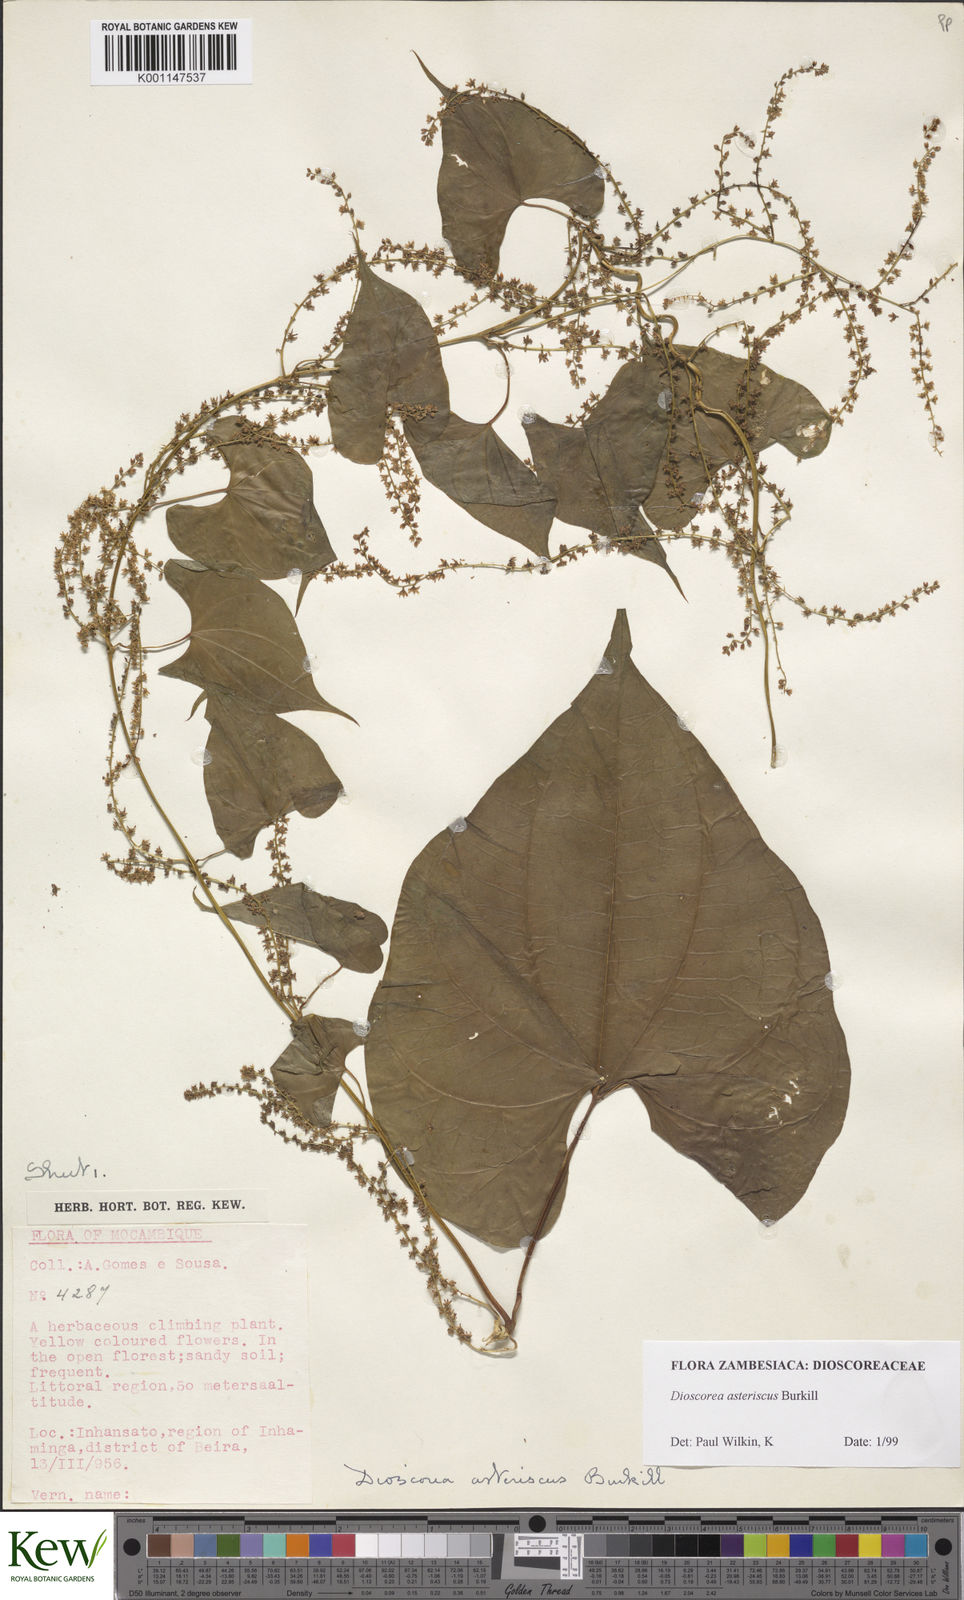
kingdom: Plantae
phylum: Tracheophyta
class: Liliopsida
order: Dioscoreales
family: Dioscoreaceae
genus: Dioscorea
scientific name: Dioscorea asteriscus
